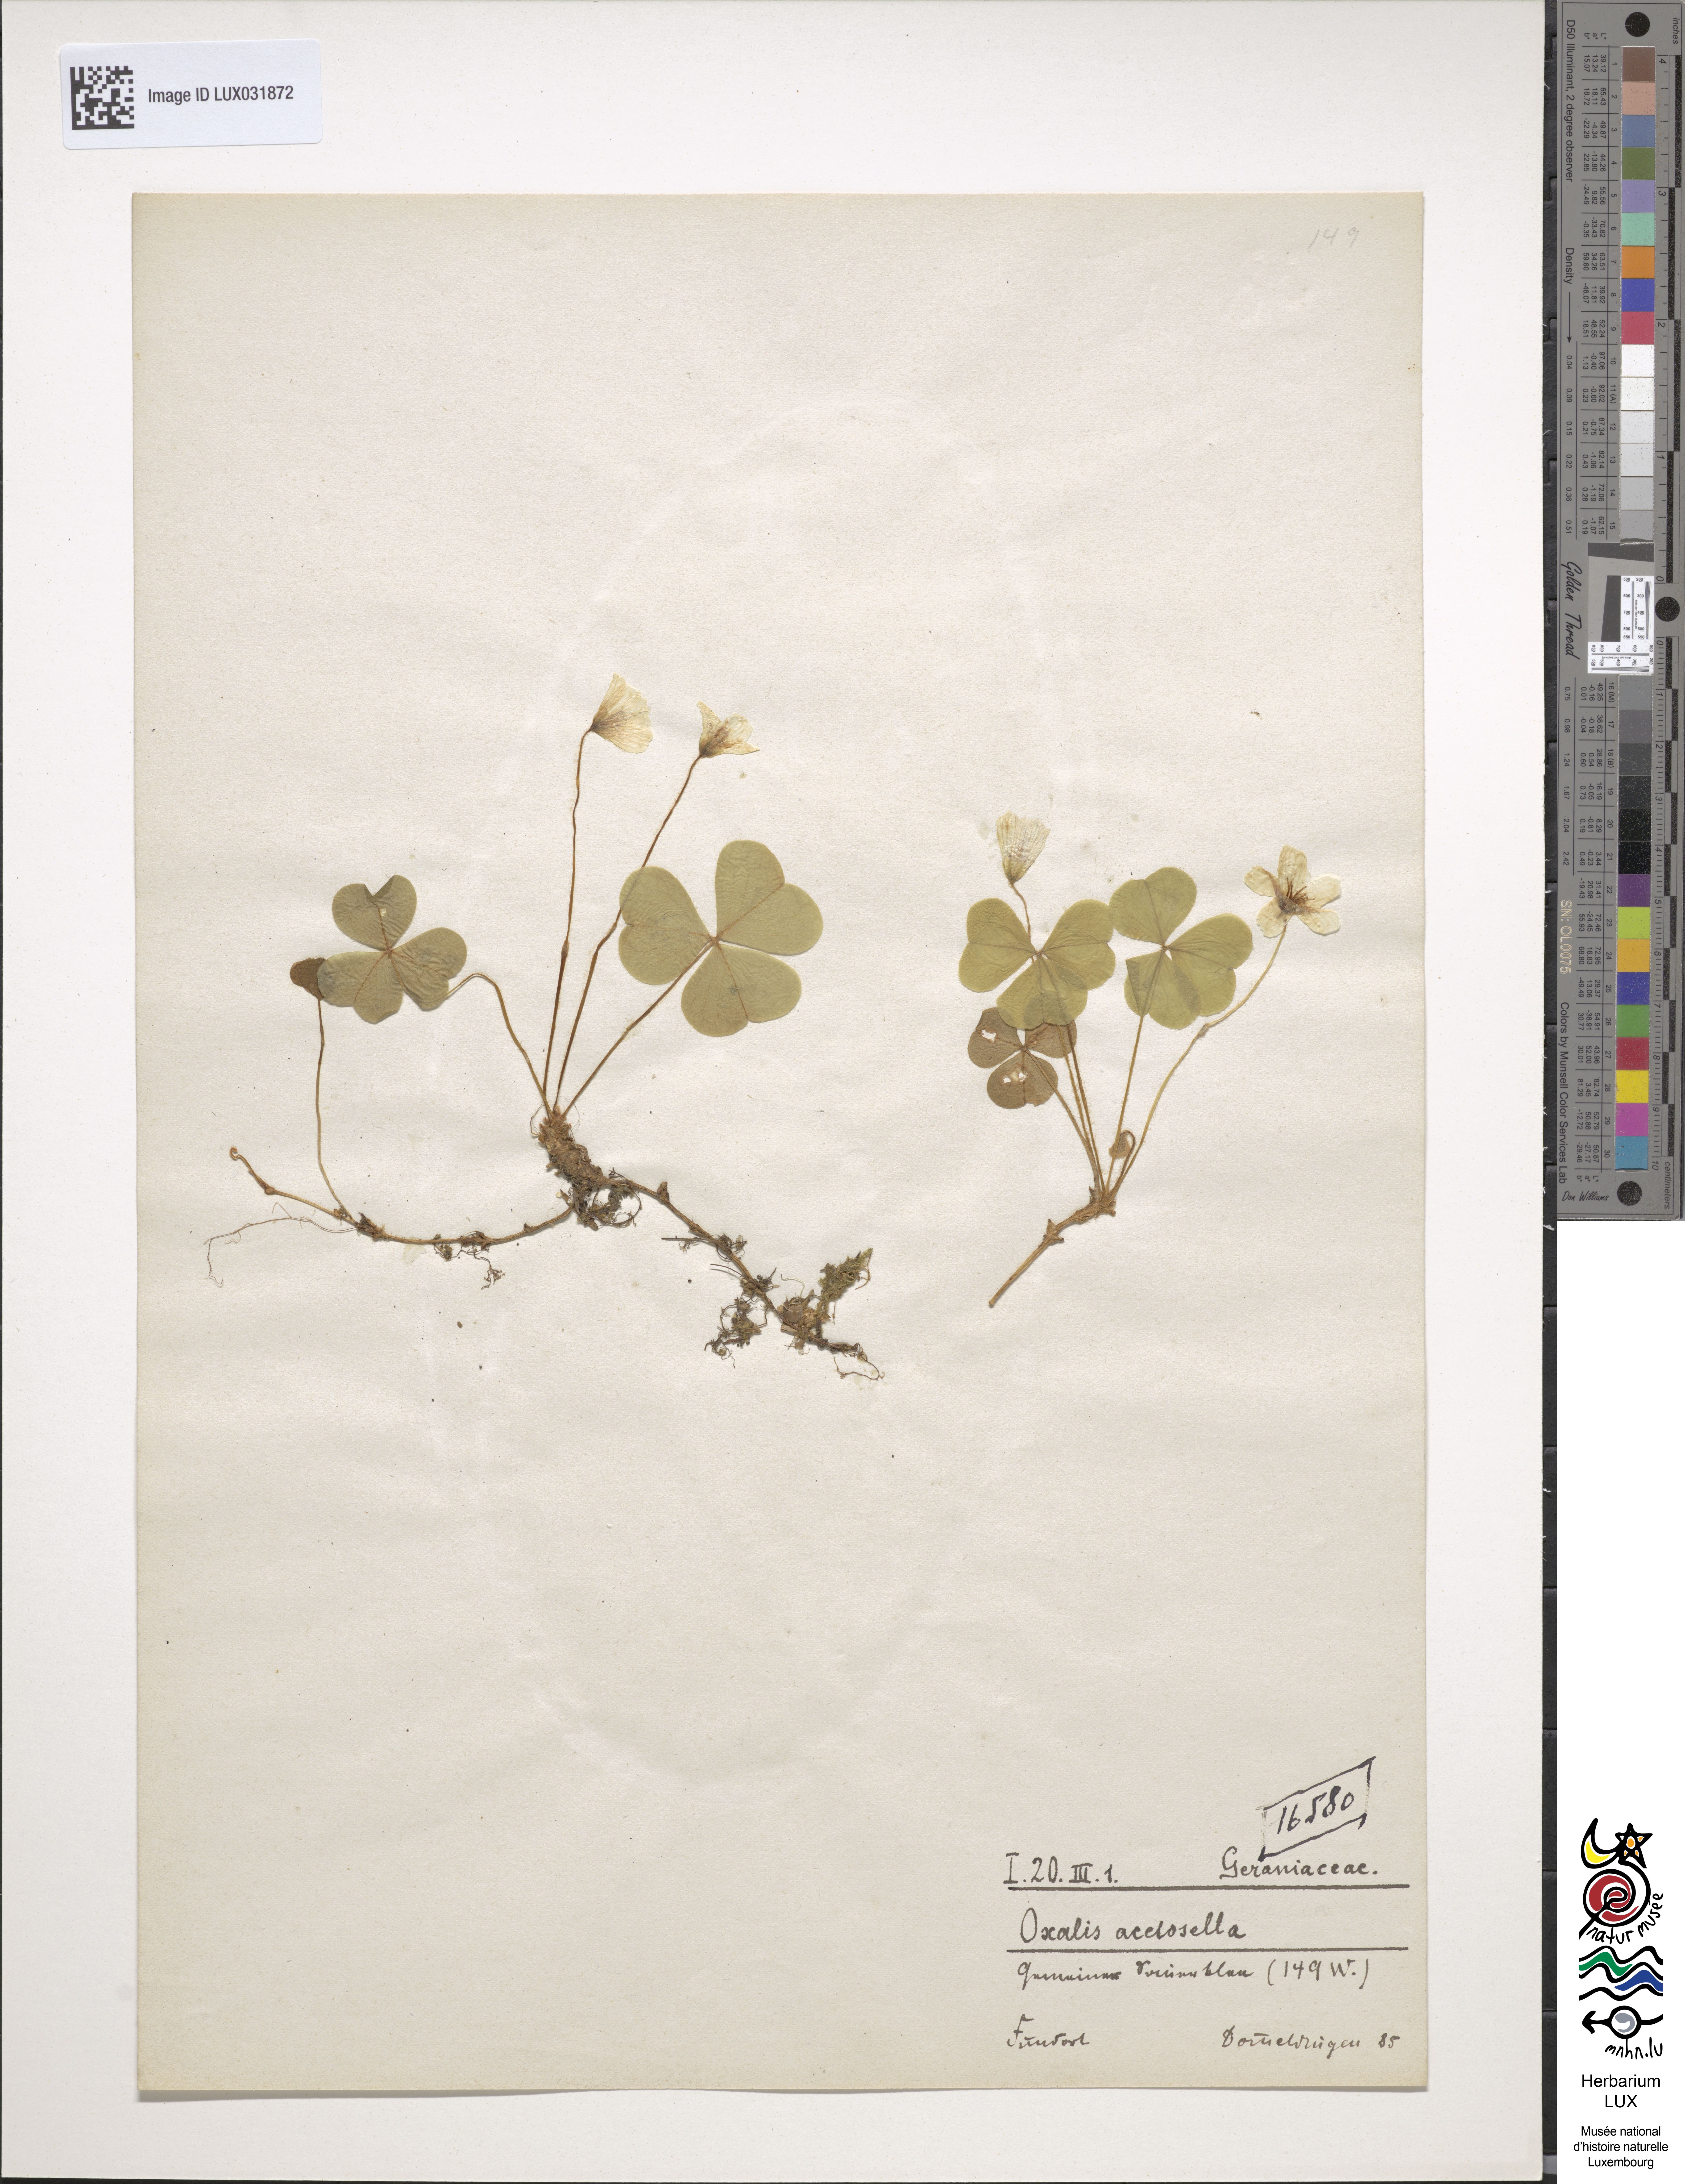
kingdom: Plantae
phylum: Tracheophyta
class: Magnoliopsida
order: Oxalidales
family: Oxalidaceae
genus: Oxalis
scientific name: Oxalis acetosella
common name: Wood-sorrel
